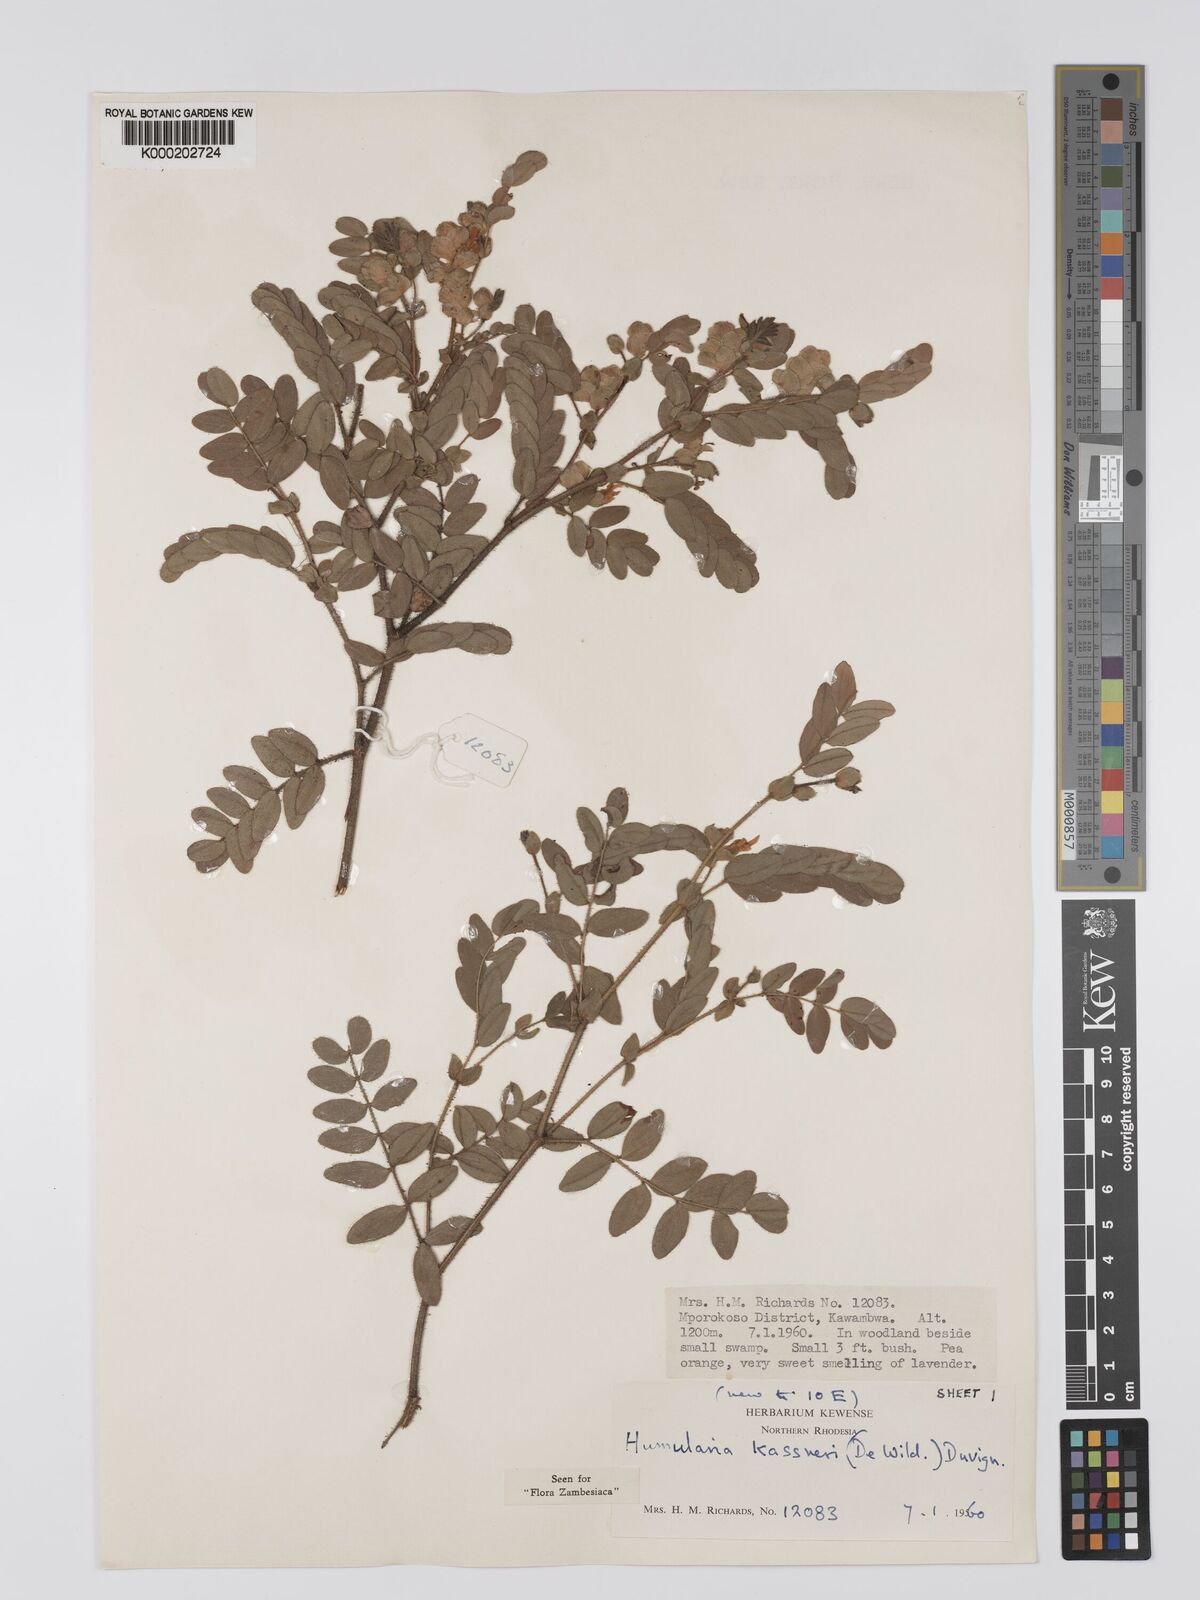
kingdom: Plantae
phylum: Tracheophyta
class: Magnoliopsida
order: Fabales
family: Fabaceae
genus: Humularia
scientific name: Humularia kassneri
